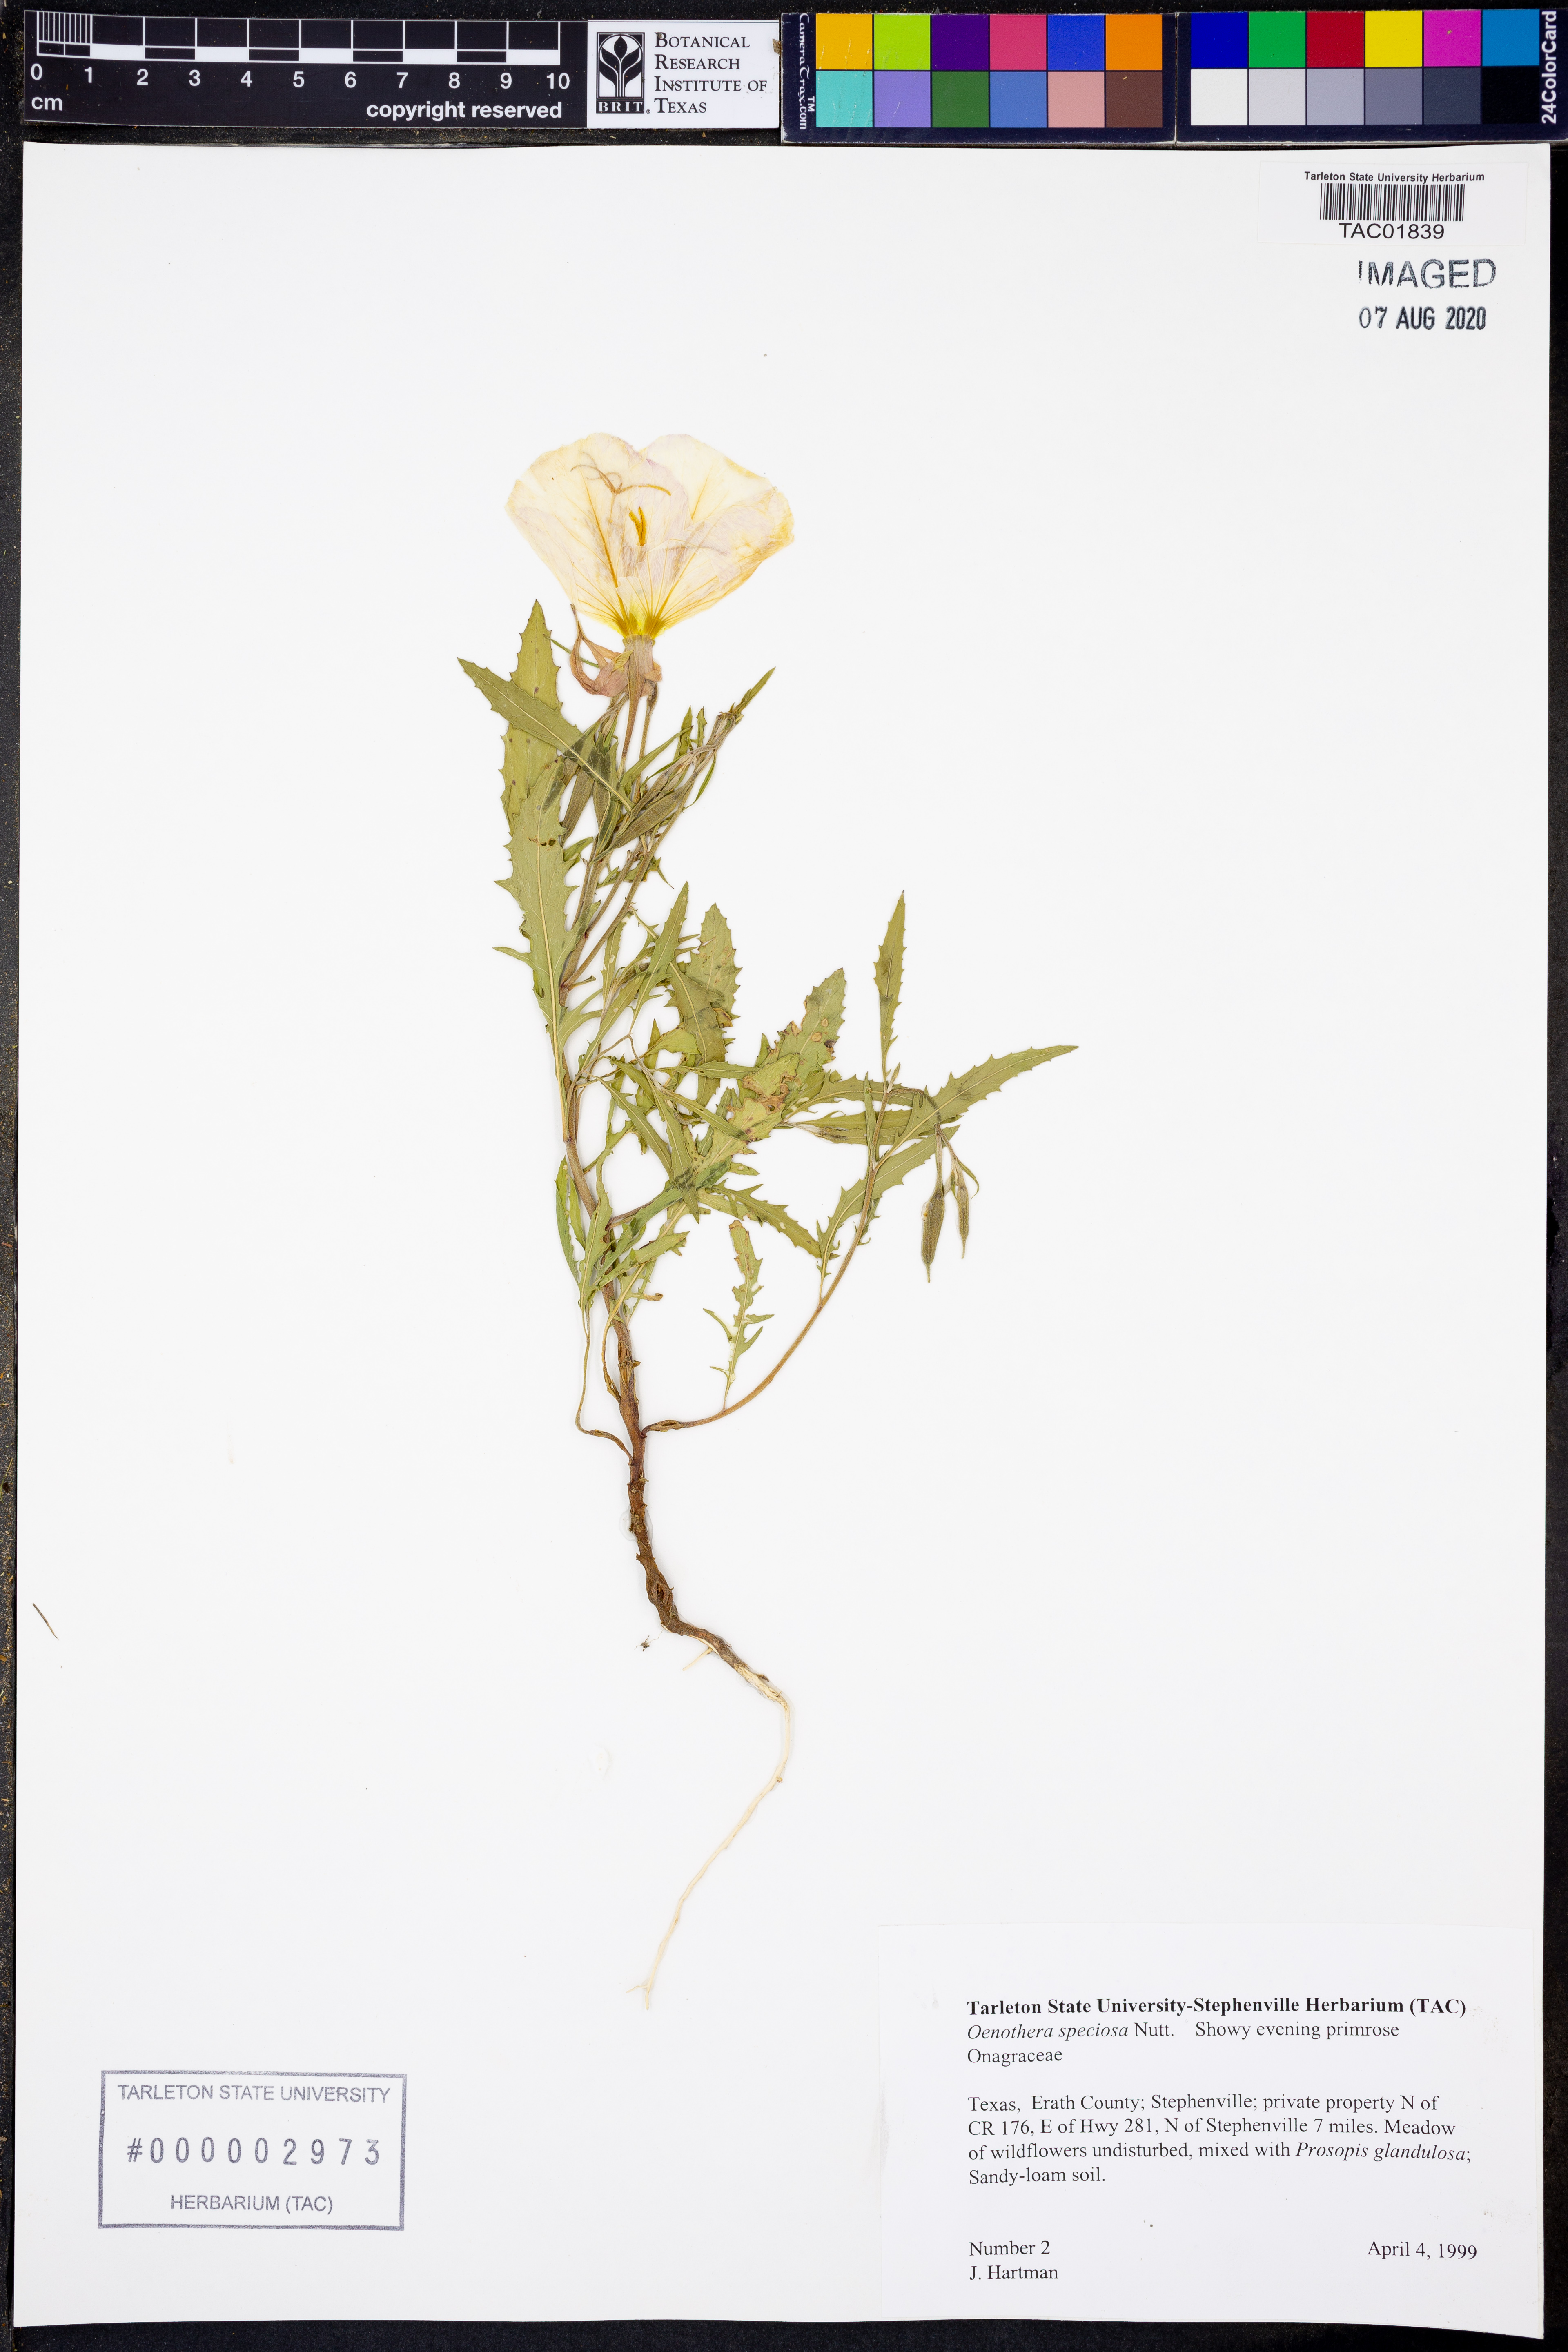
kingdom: Plantae
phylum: Tracheophyta
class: Magnoliopsida
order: Myrtales
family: Onagraceae
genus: Oenothera
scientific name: Oenothera speciosa
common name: White evening-primrose
